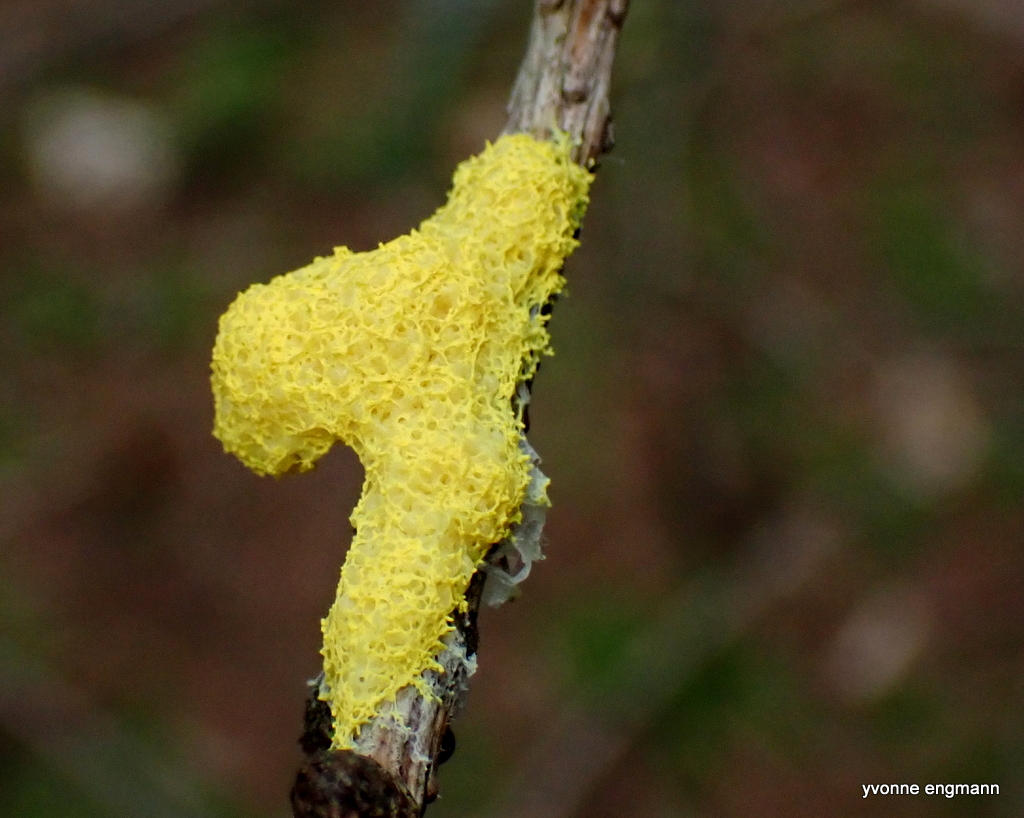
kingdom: Protozoa
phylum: Mycetozoa
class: Myxomycetes
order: Physarales
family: Physaraceae
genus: Fuligo
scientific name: Fuligo septica
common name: gul troldsmør
